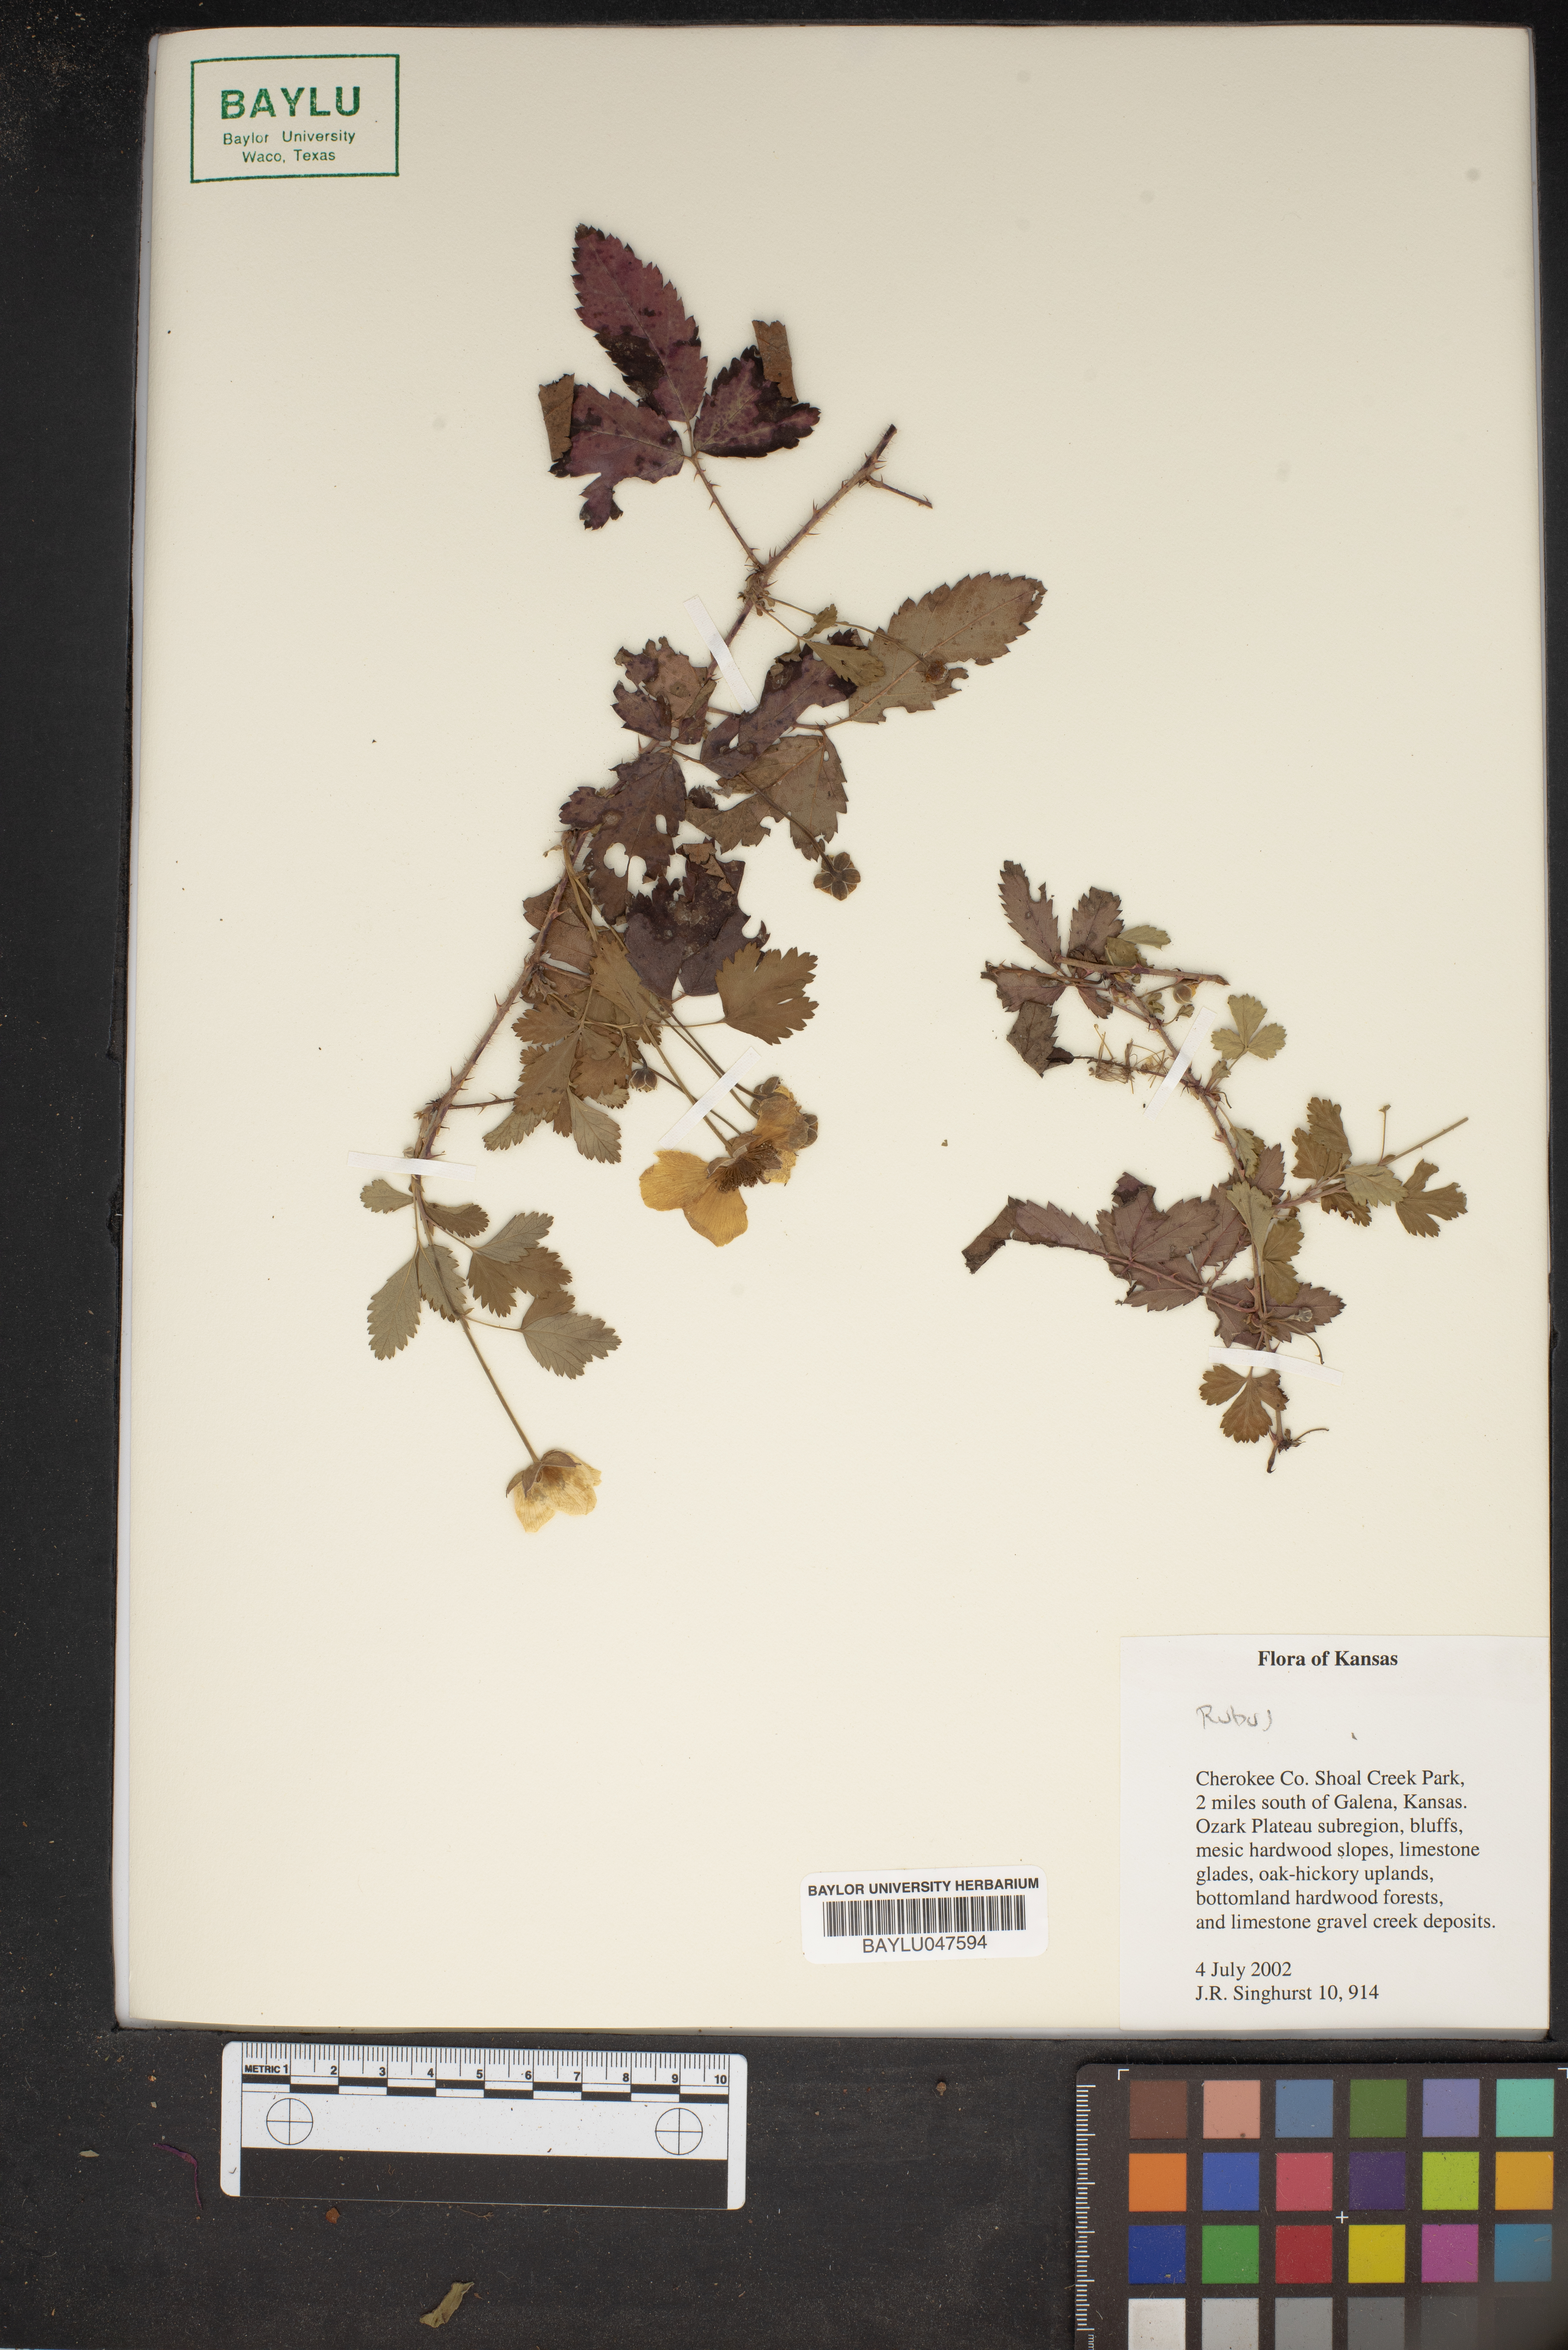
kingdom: Plantae
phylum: Tracheophyta
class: Magnoliopsida
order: Rosales
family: Rosaceae
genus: Rubus
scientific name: Rubus
